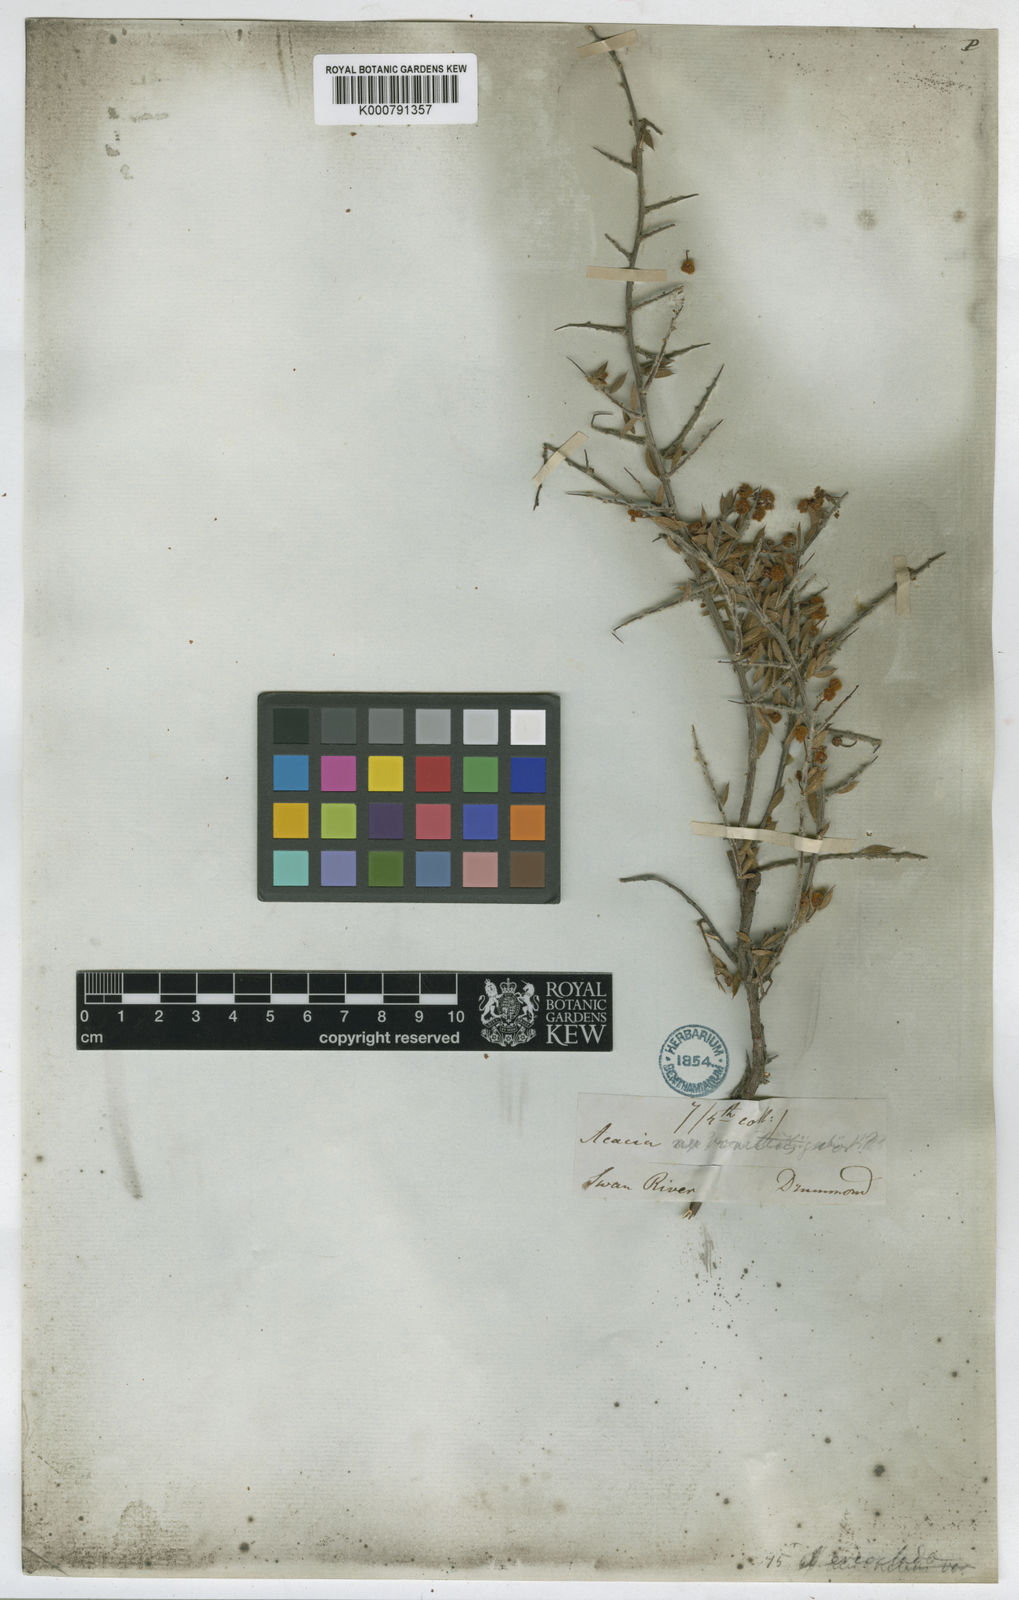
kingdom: Plantae
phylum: Tracheophyta
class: Magnoliopsida
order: Fabales
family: Fabaceae
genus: Acacia
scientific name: Acacia erioclada
